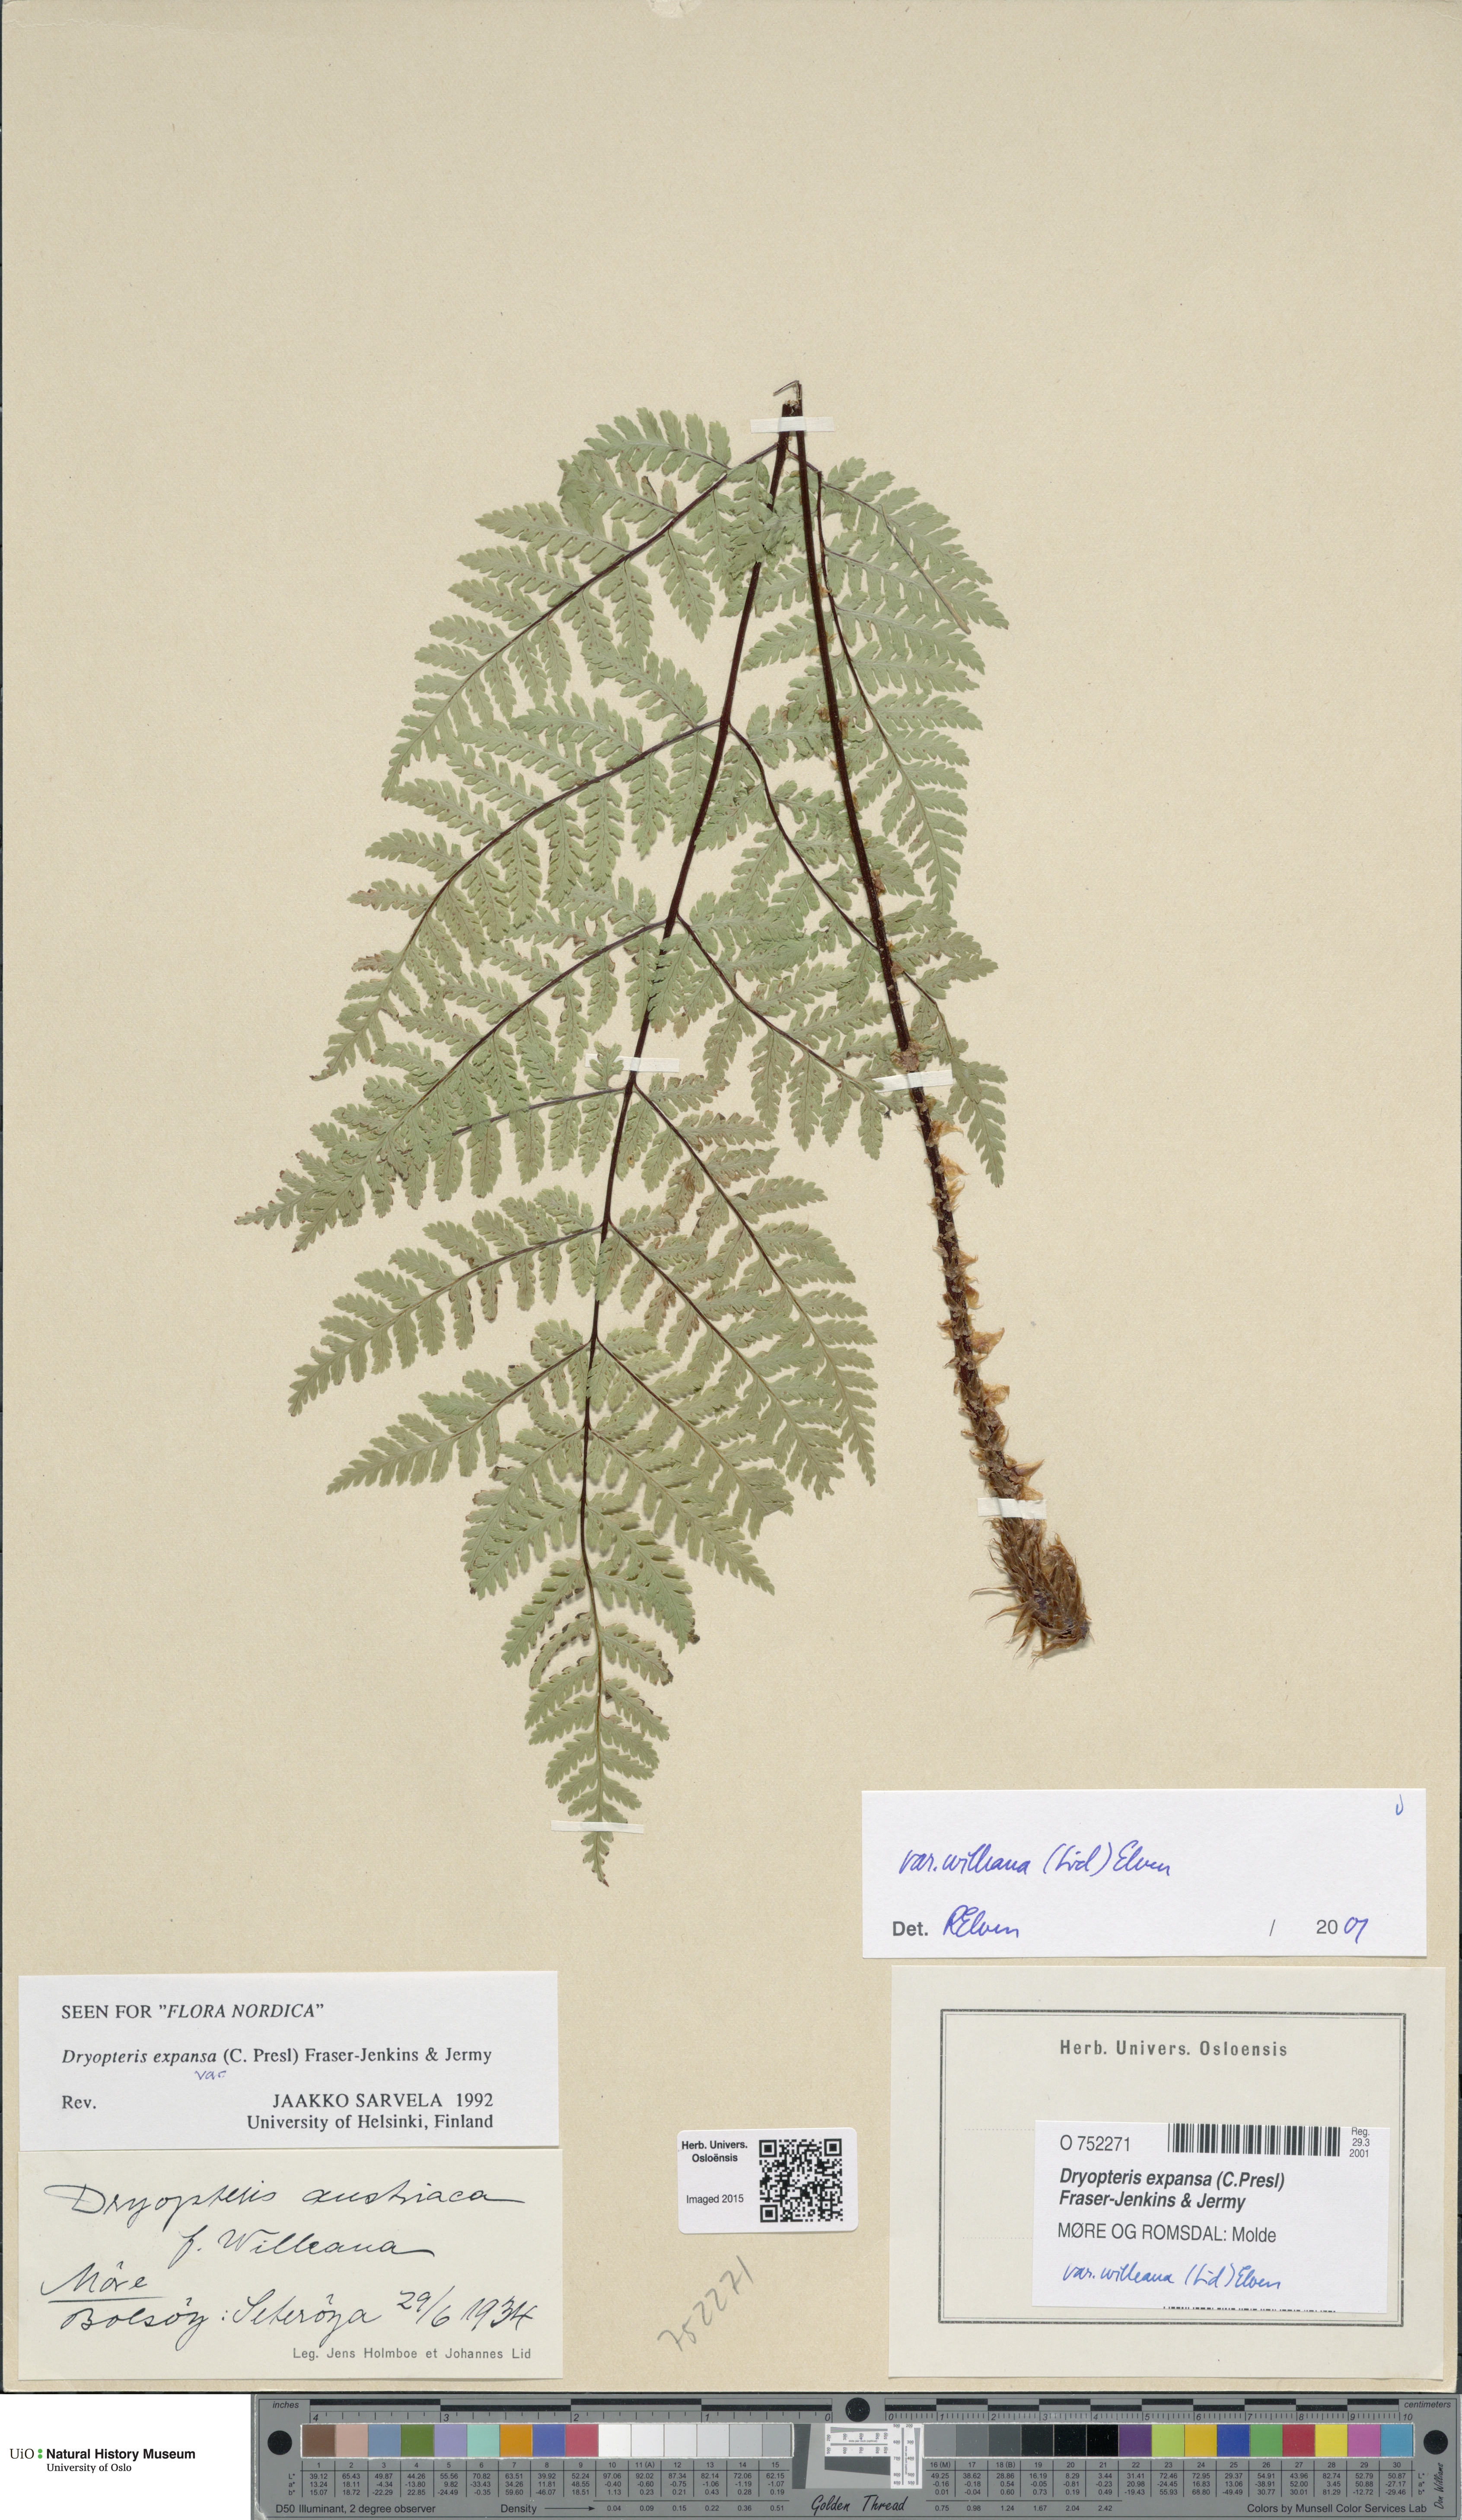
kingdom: Plantae
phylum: Tracheophyta
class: Polypodiopsida
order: Polypodiales
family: Dryopteridaceae
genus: Dryopteris
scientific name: Dryopteris expansa
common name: Northern buckler fern
